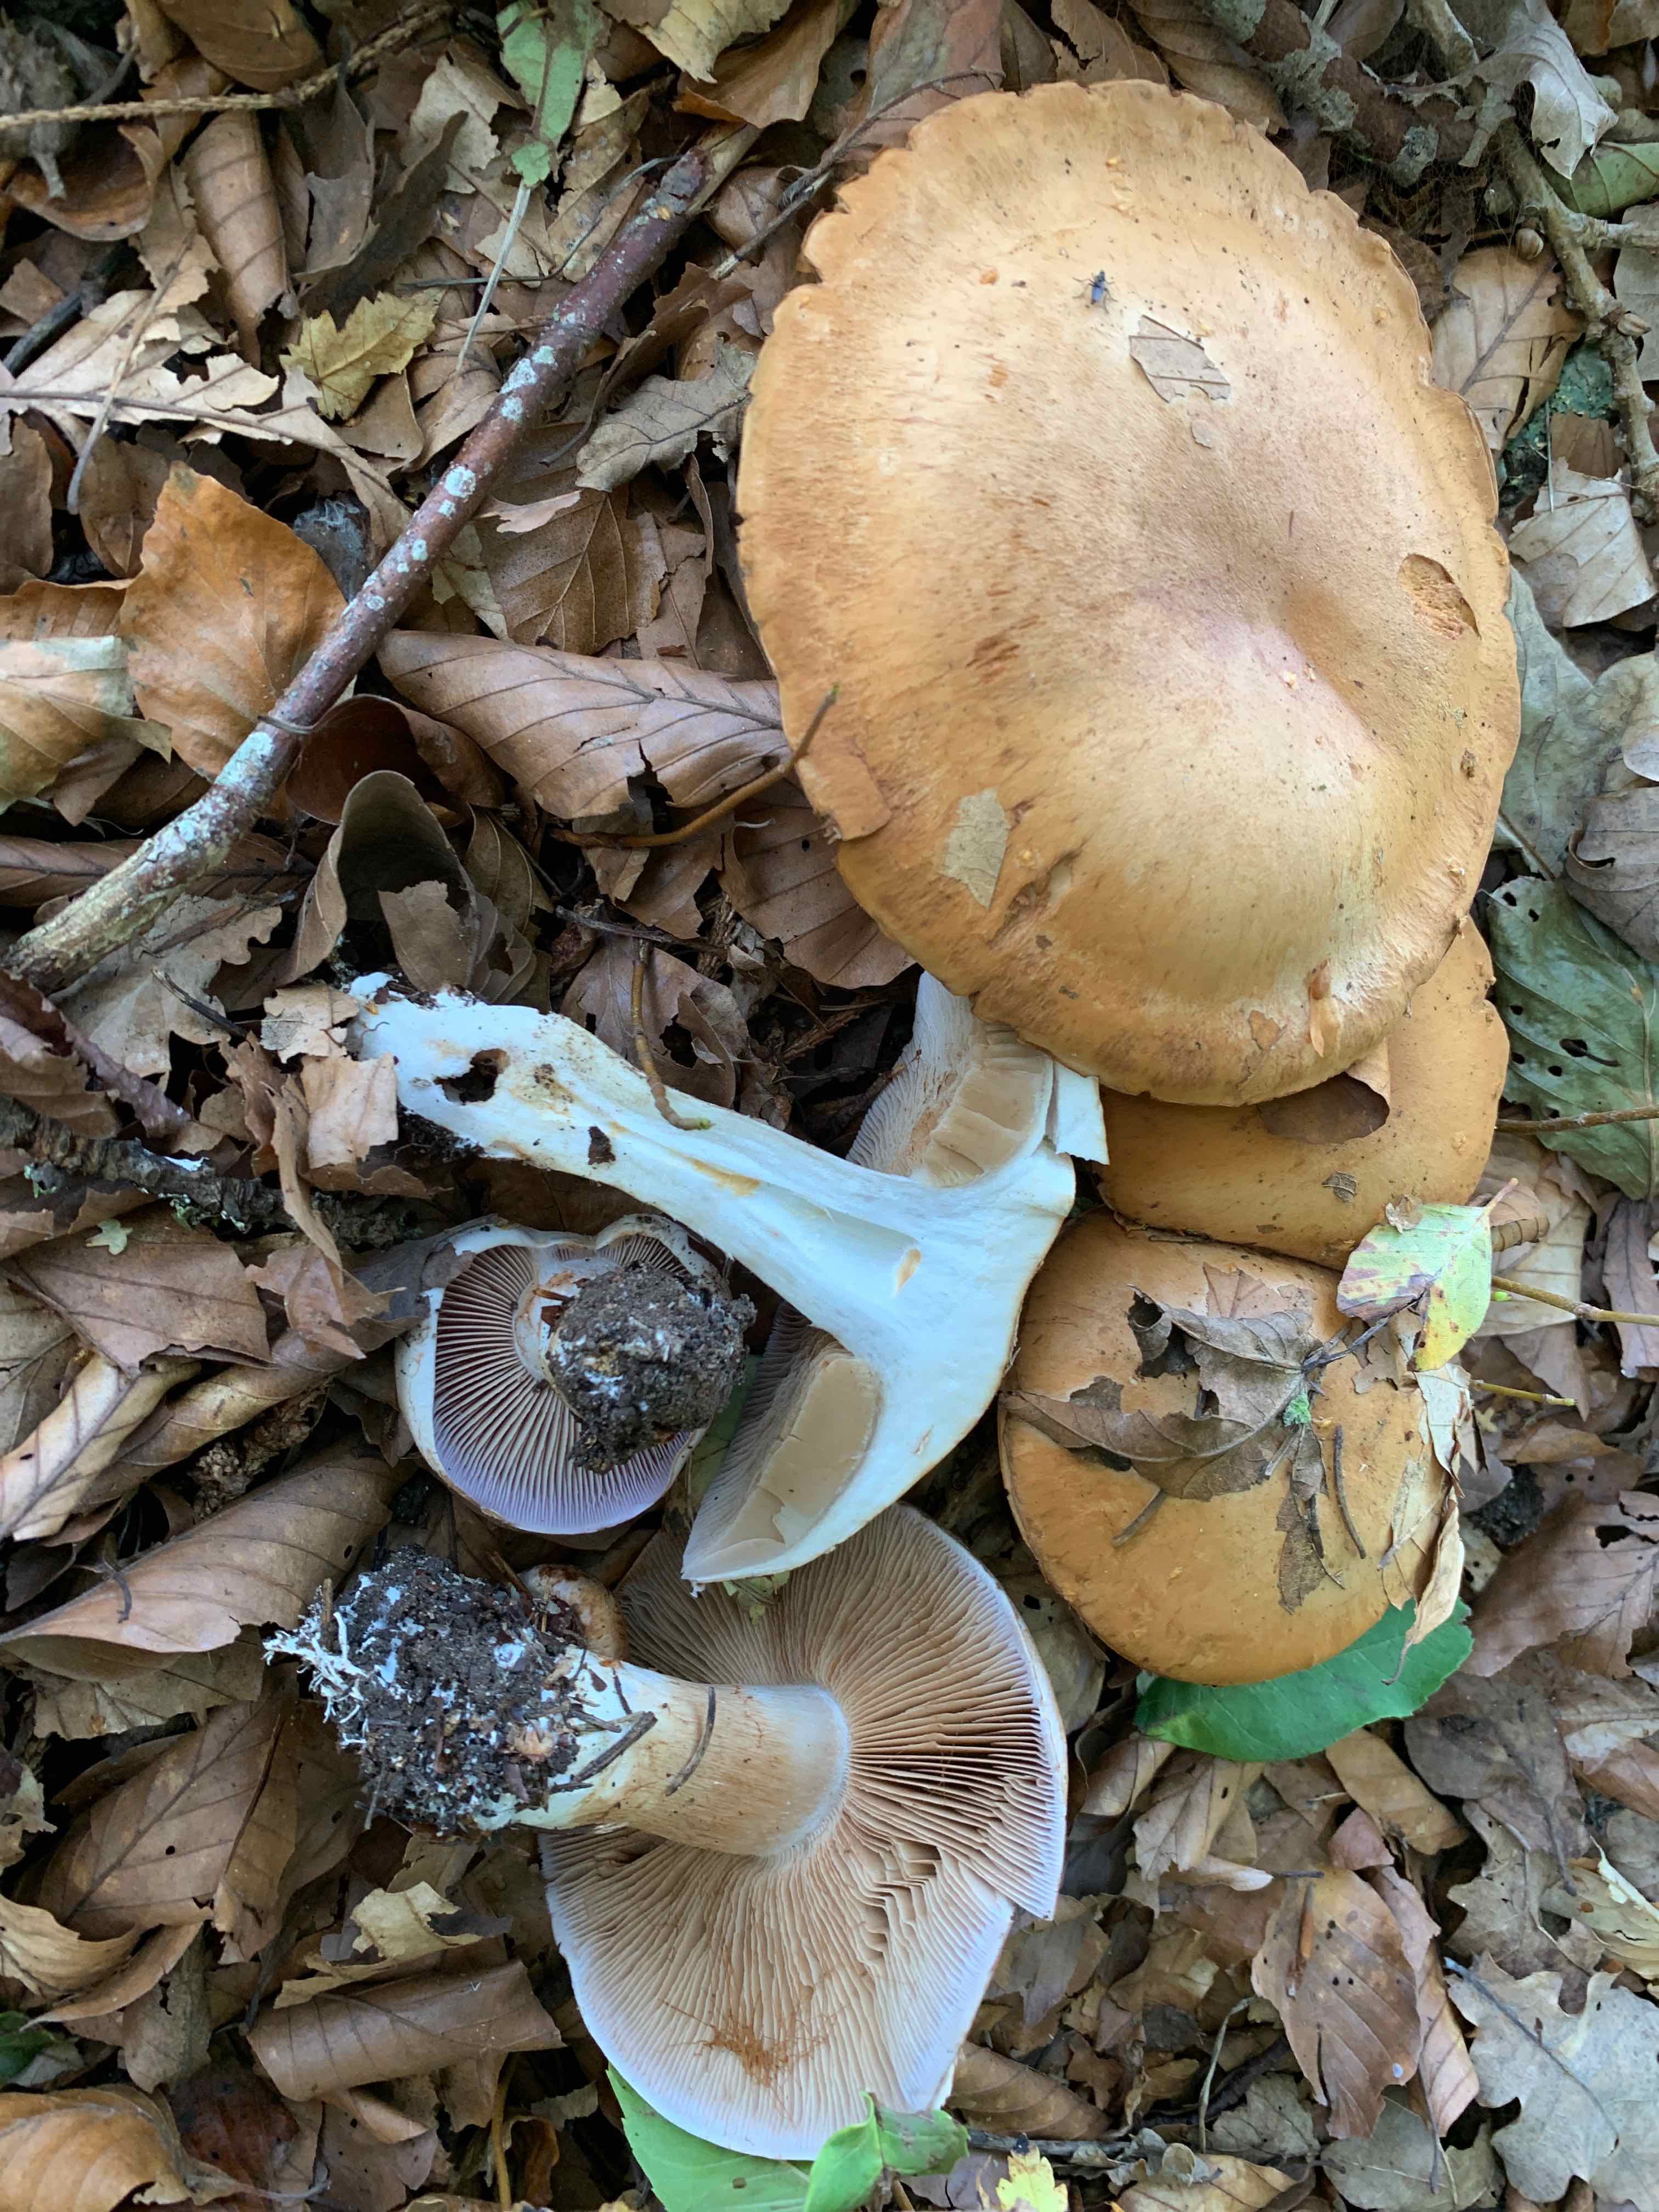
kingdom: Fungi
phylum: Basidiomycota
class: Agaricomycetes
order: Agaricales
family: Cortinariaceae
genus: Cortinarius
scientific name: Cortinarius largus
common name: violetrandet slørhat
